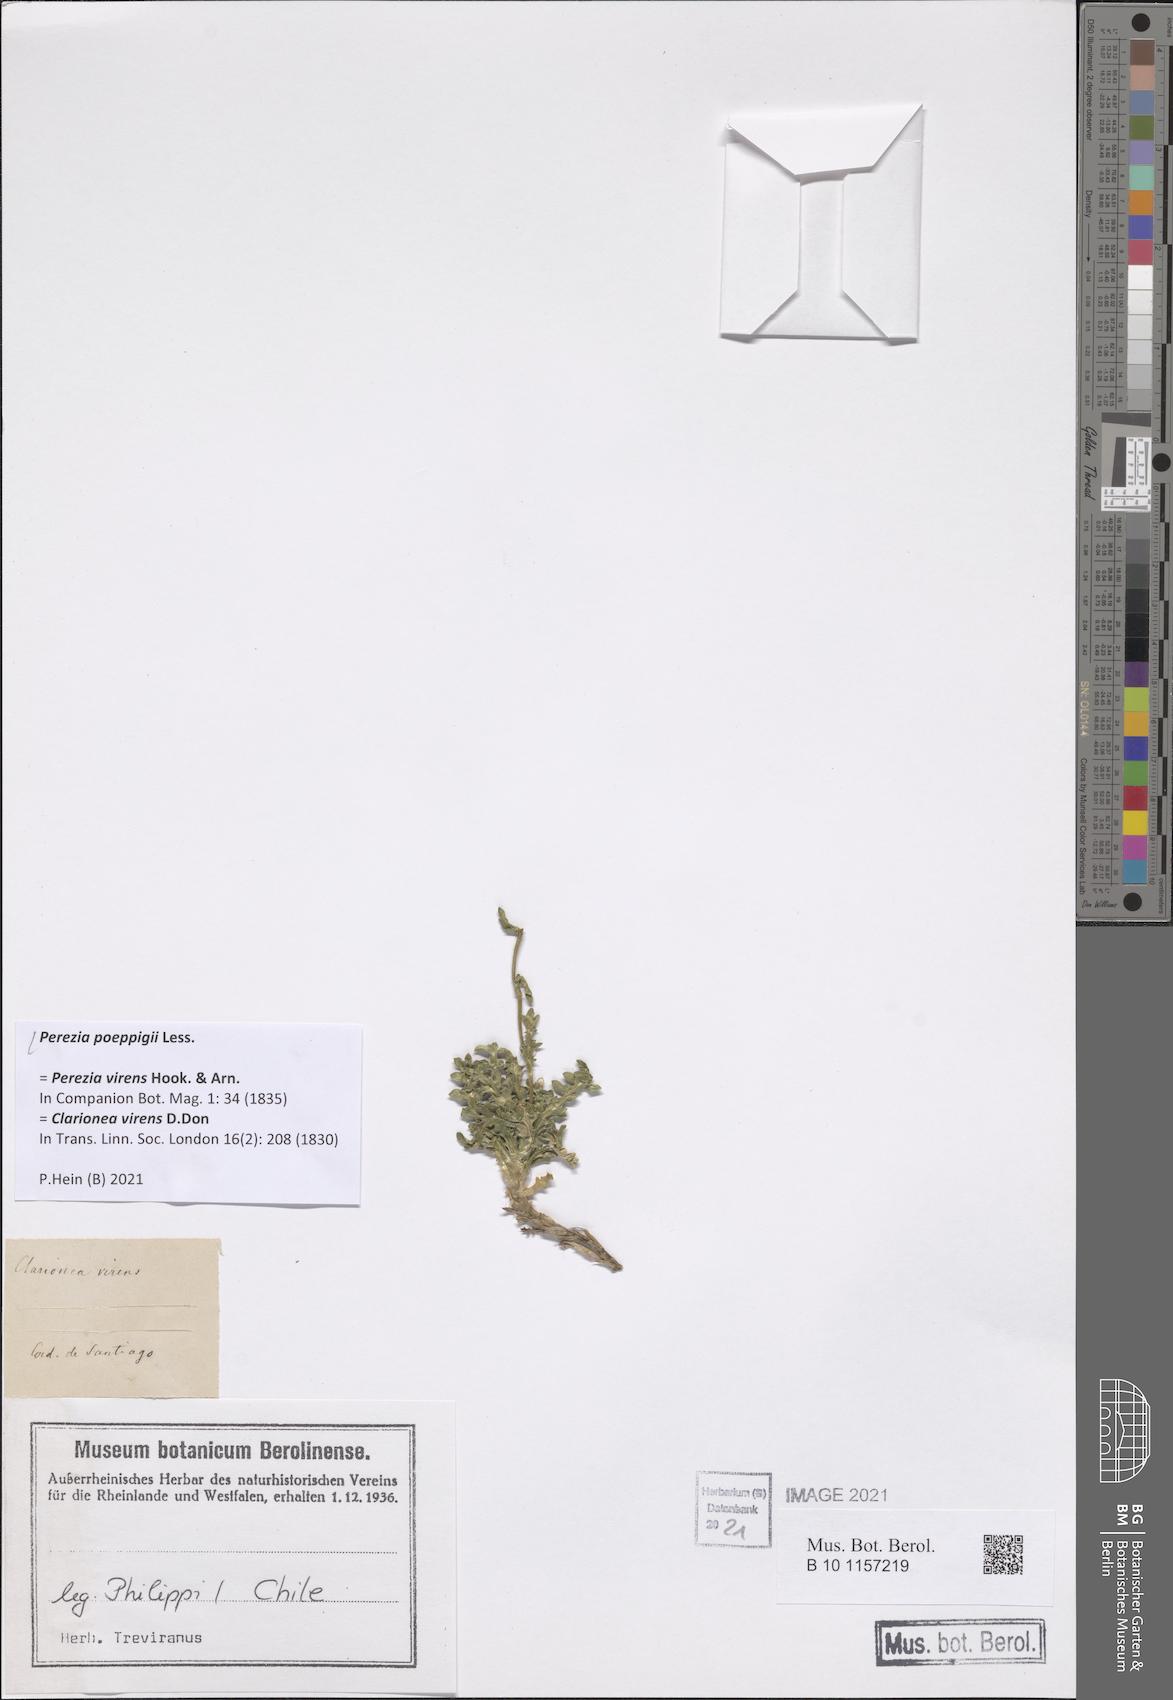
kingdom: Plantae
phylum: Tracheophyta
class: Magnoliopsida
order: Asterales
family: Asteraceae
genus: Perezia
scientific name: Perezia poeppigii
